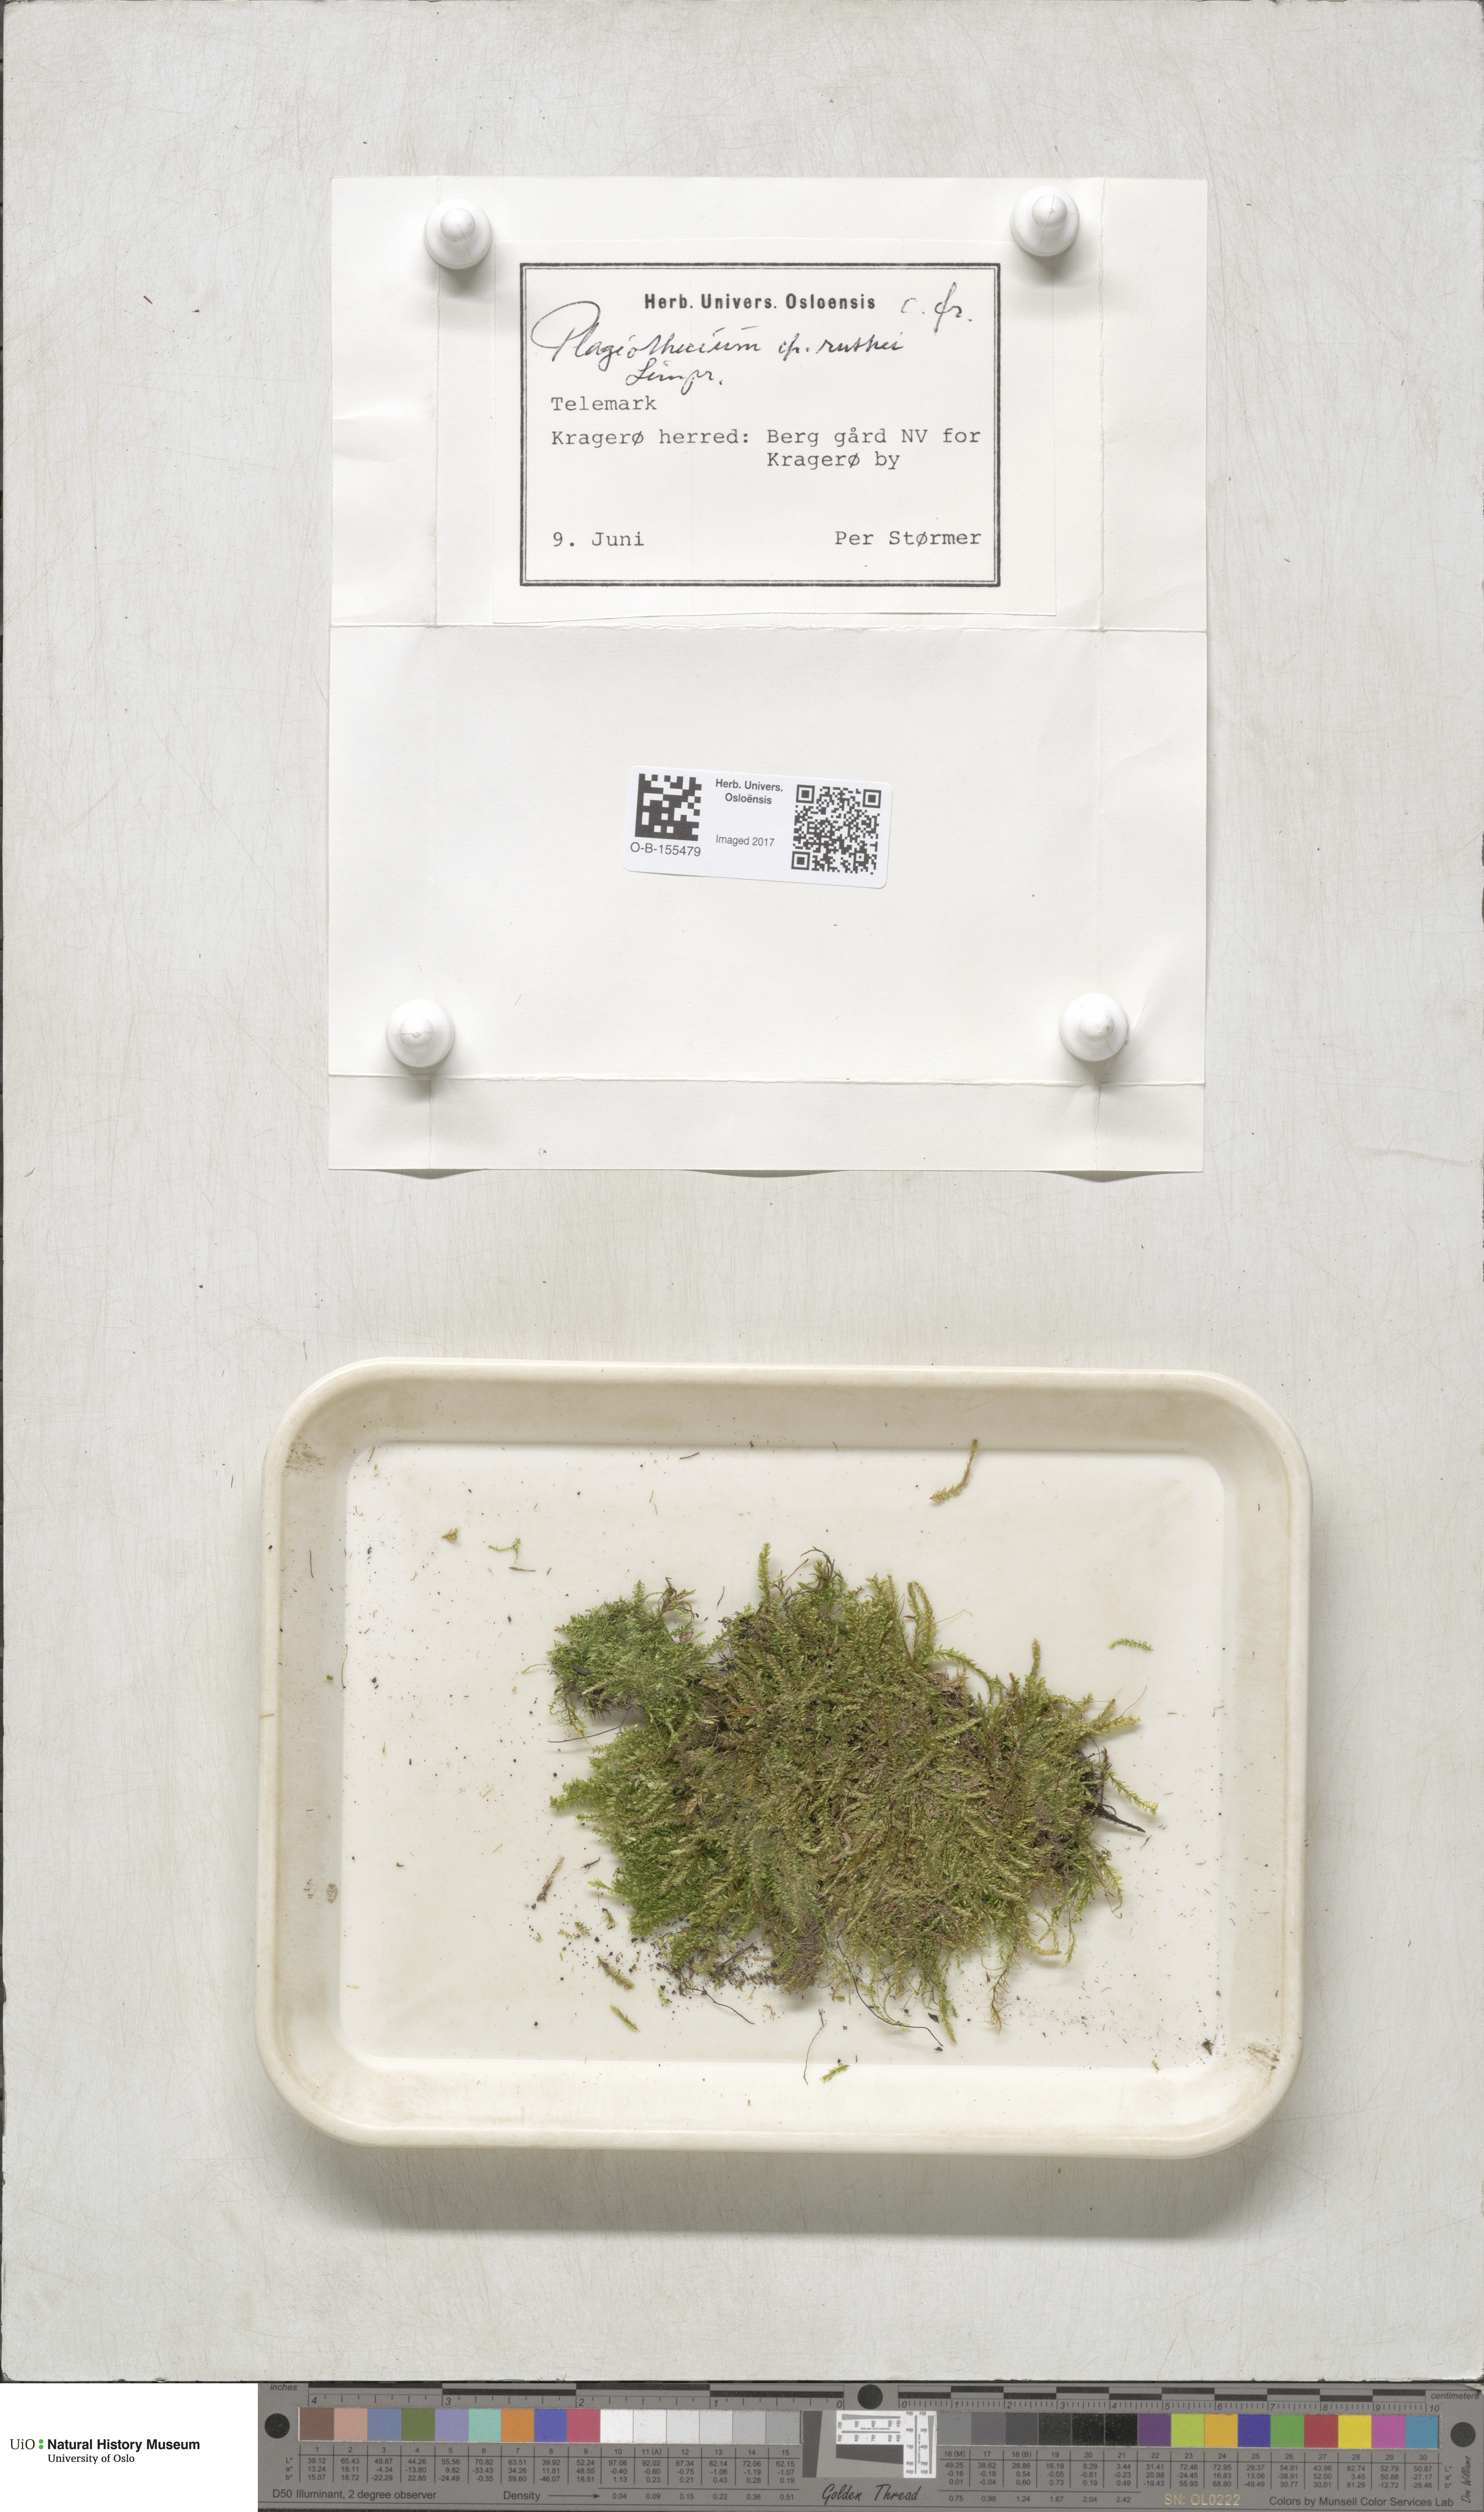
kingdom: Plantae
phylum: Bryophyta
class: Bryopsida
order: Hypnales
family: Plagiotheciaceae
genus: Plagiothecium
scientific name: Plagiothecium denticulatum
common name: Dented silk moss
